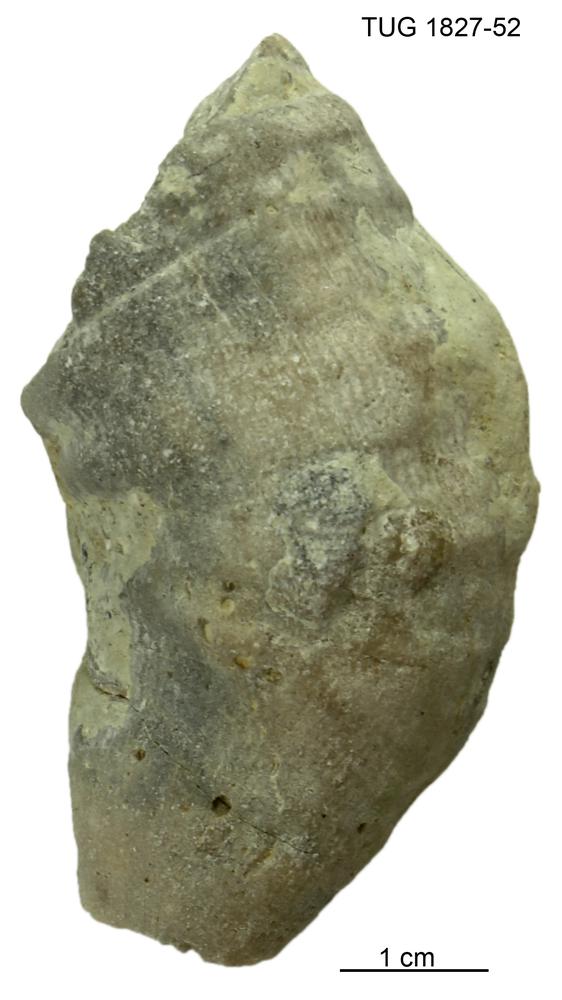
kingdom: Animalia
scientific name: Animalia
